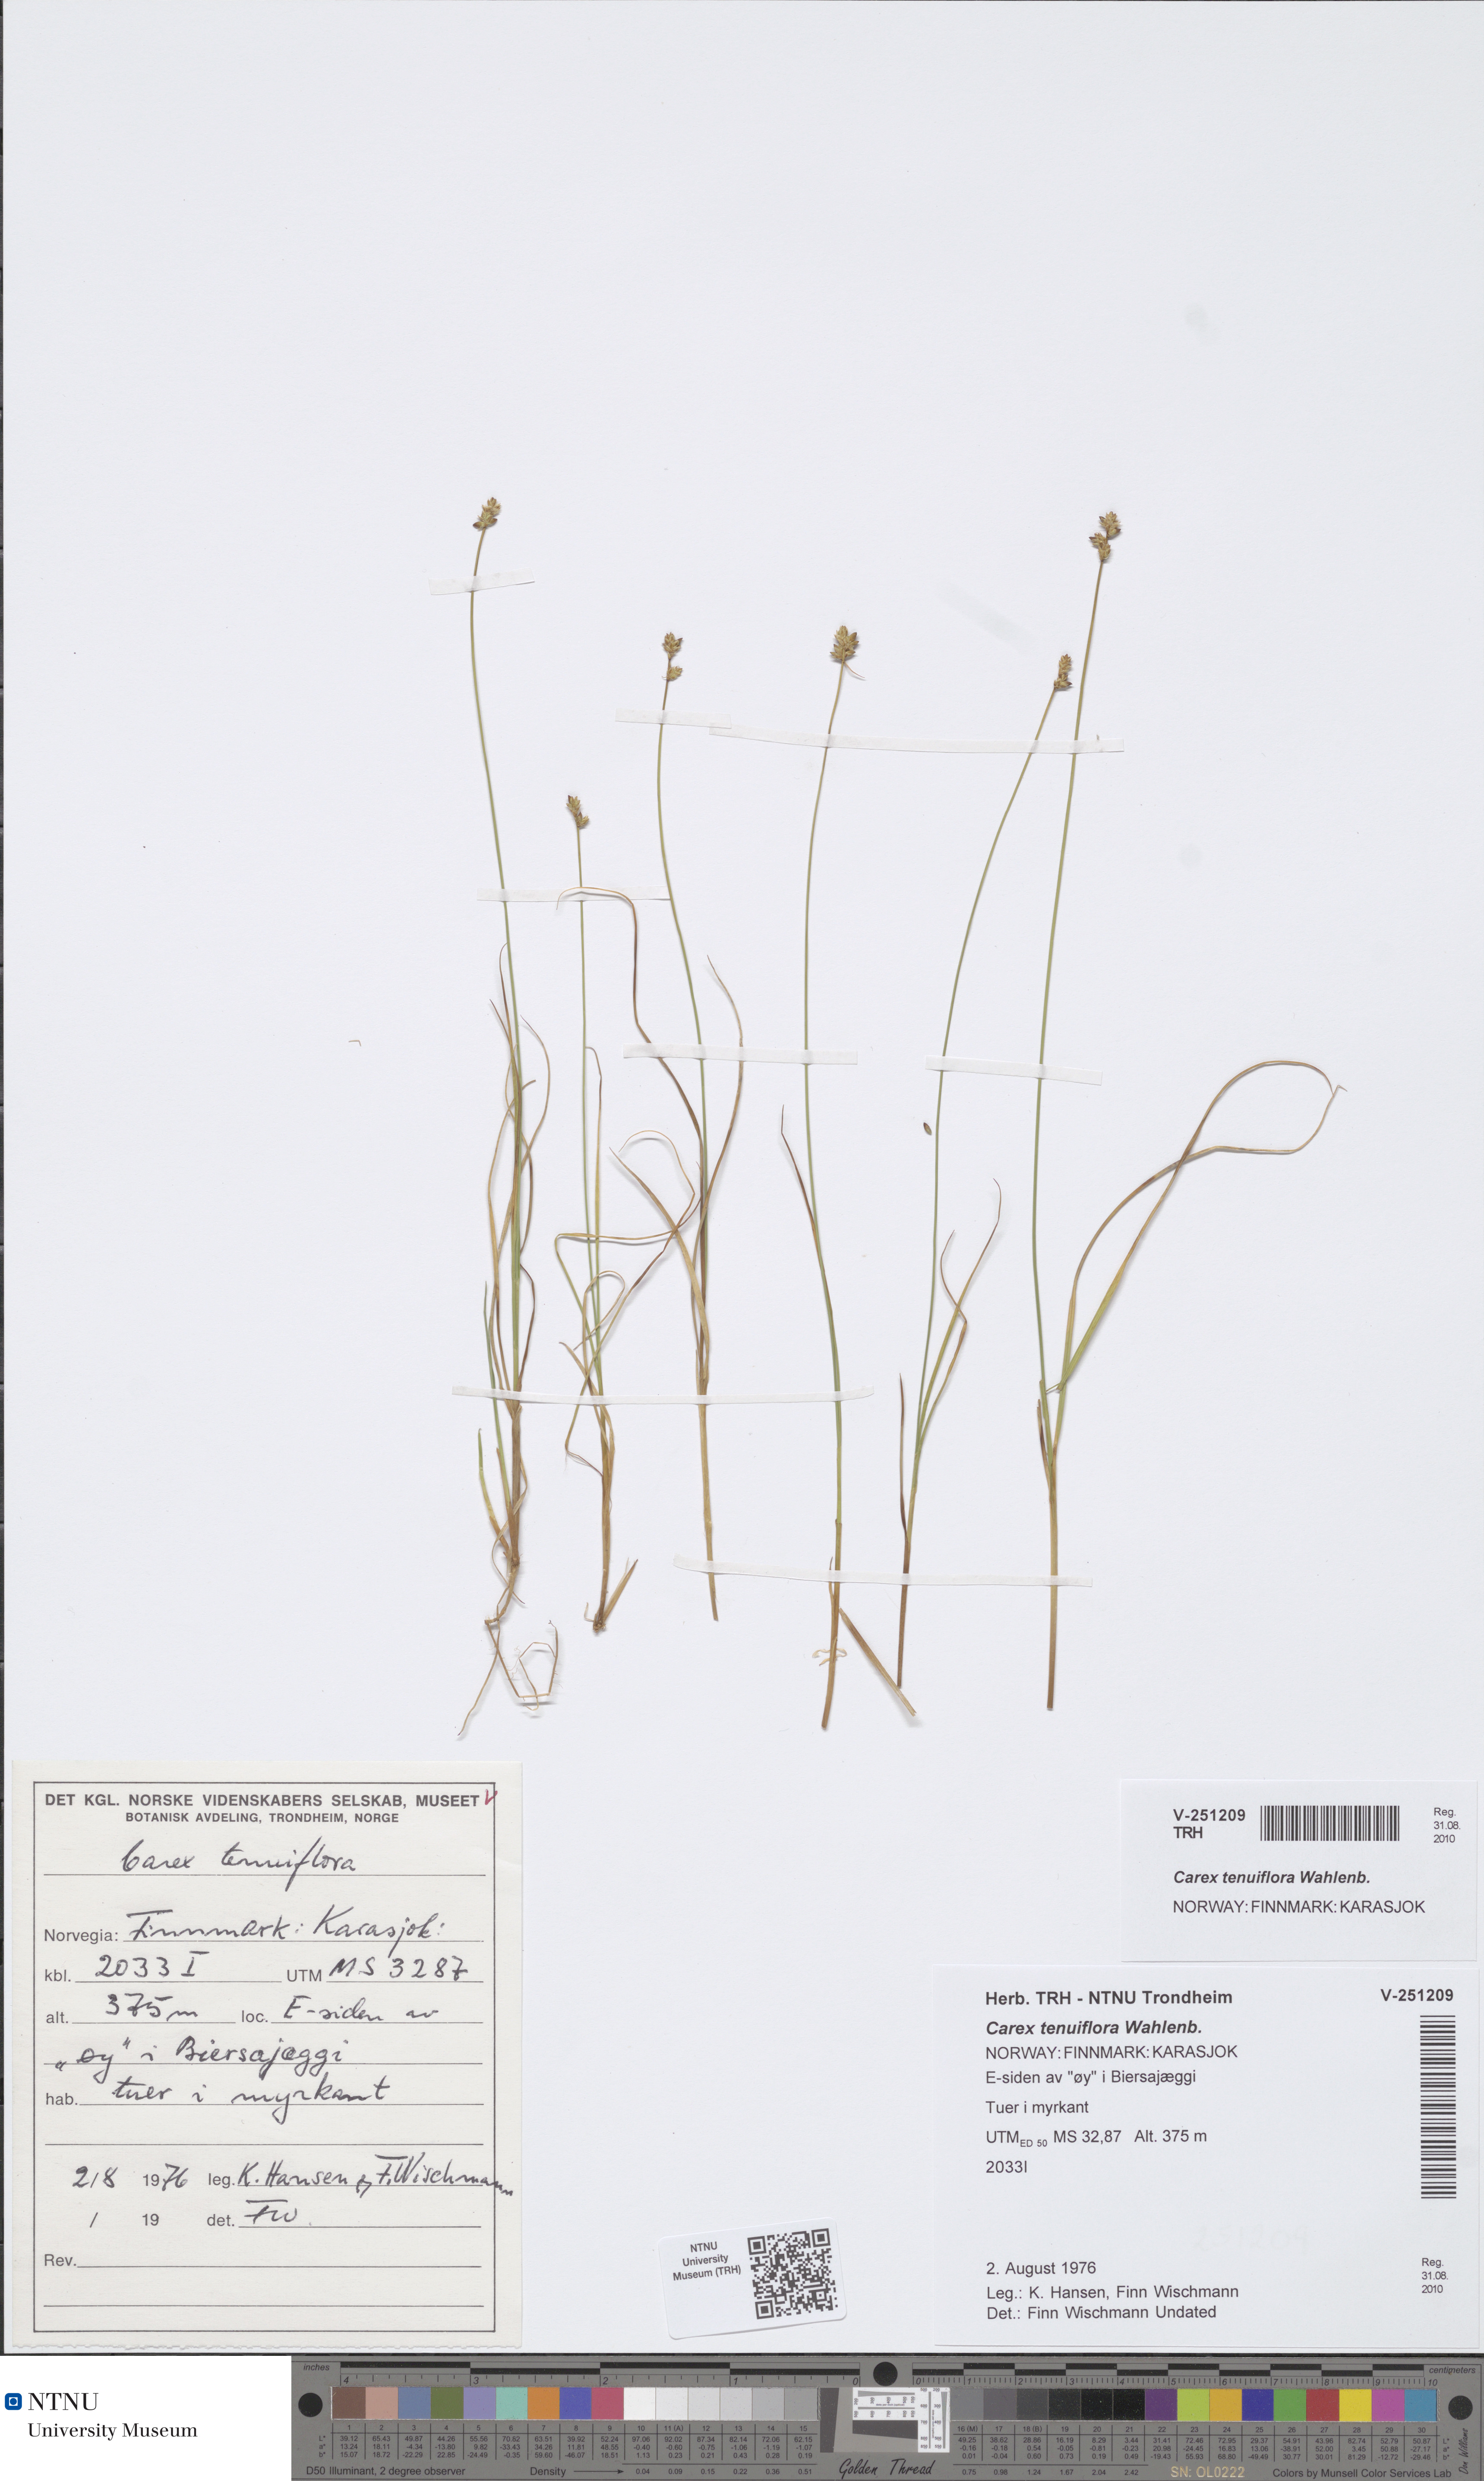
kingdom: Plantae
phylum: Tracheophyta
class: Liliopsida
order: Poales
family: Cyperaceae
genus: Carex
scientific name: Carex tenuiflora
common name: Sparse-flowered sedge
